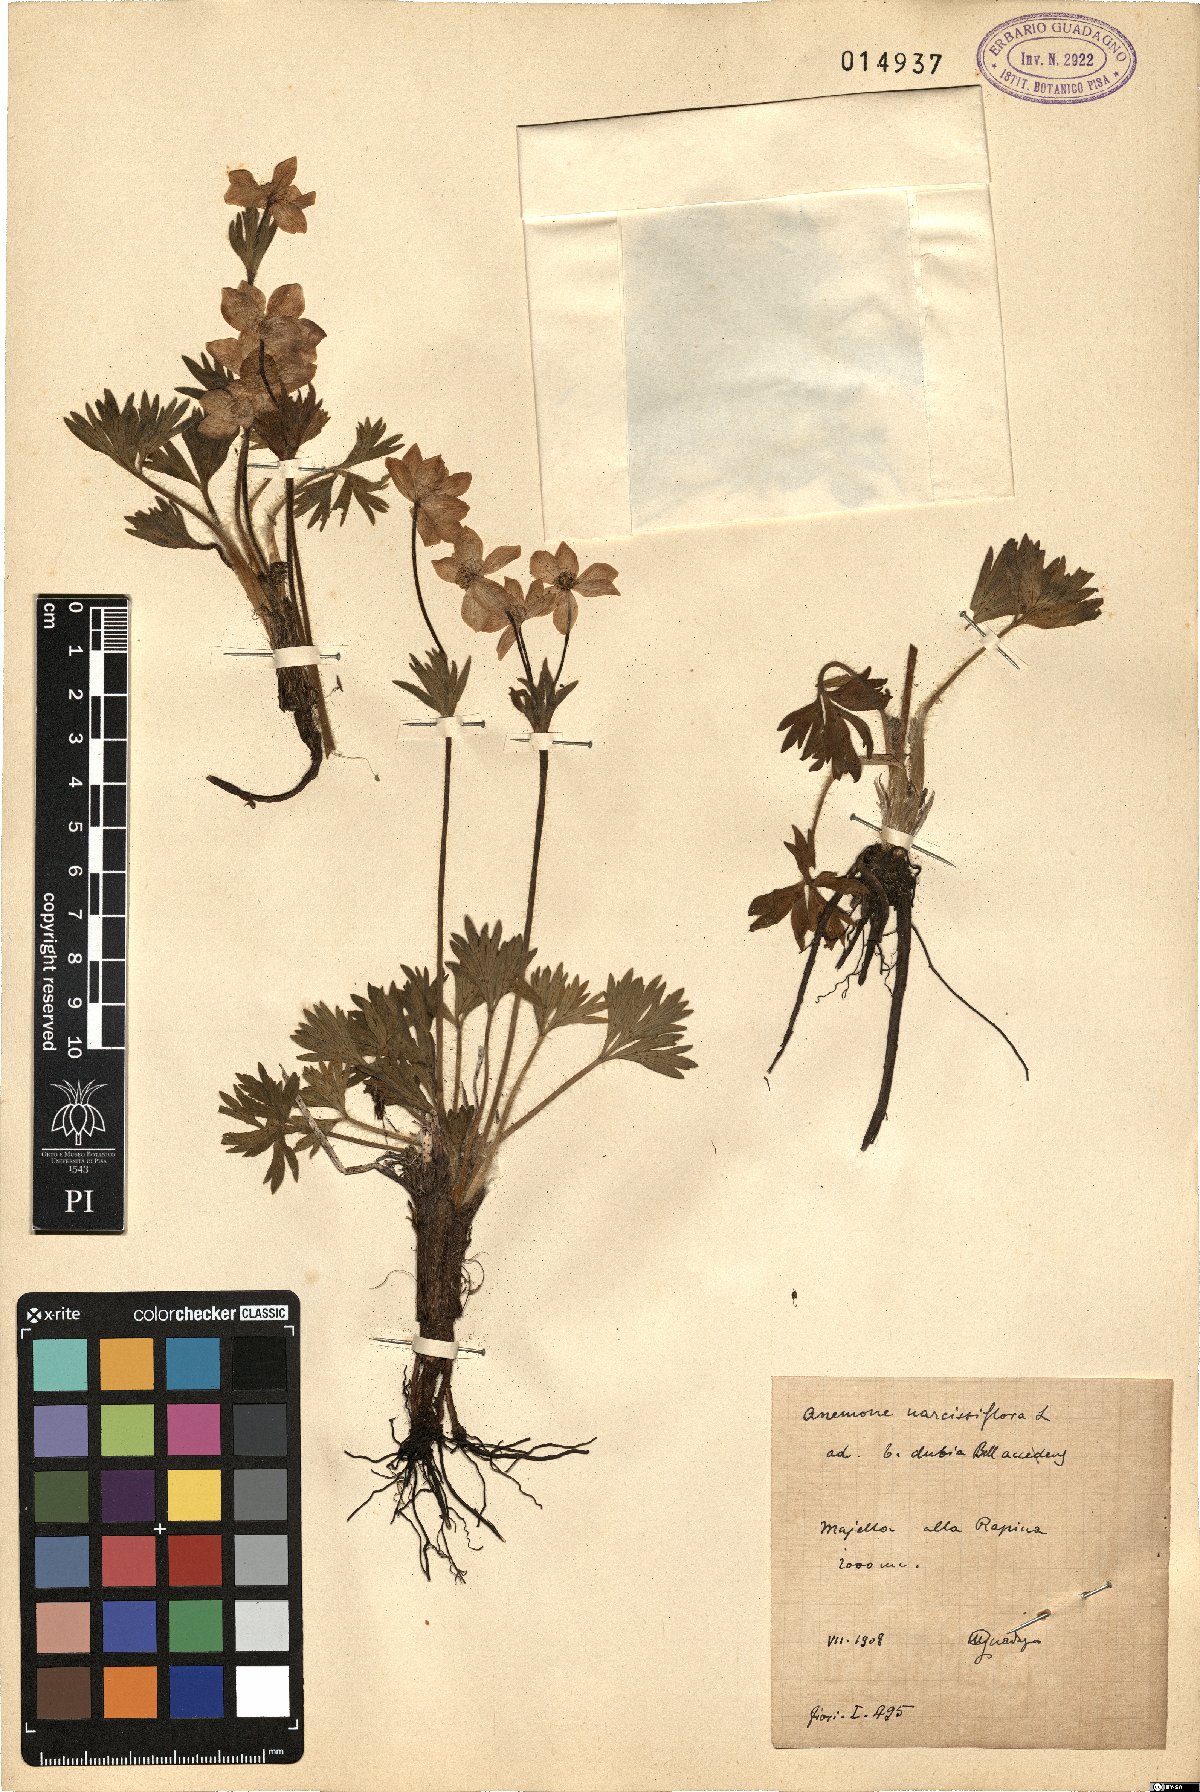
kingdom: Plantae
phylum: Tracheophyta
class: Magnoliopsida
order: Ranunculales
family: Ranunculaceae
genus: Anemonastrum
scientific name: Anemonastrum narcissiflorum
